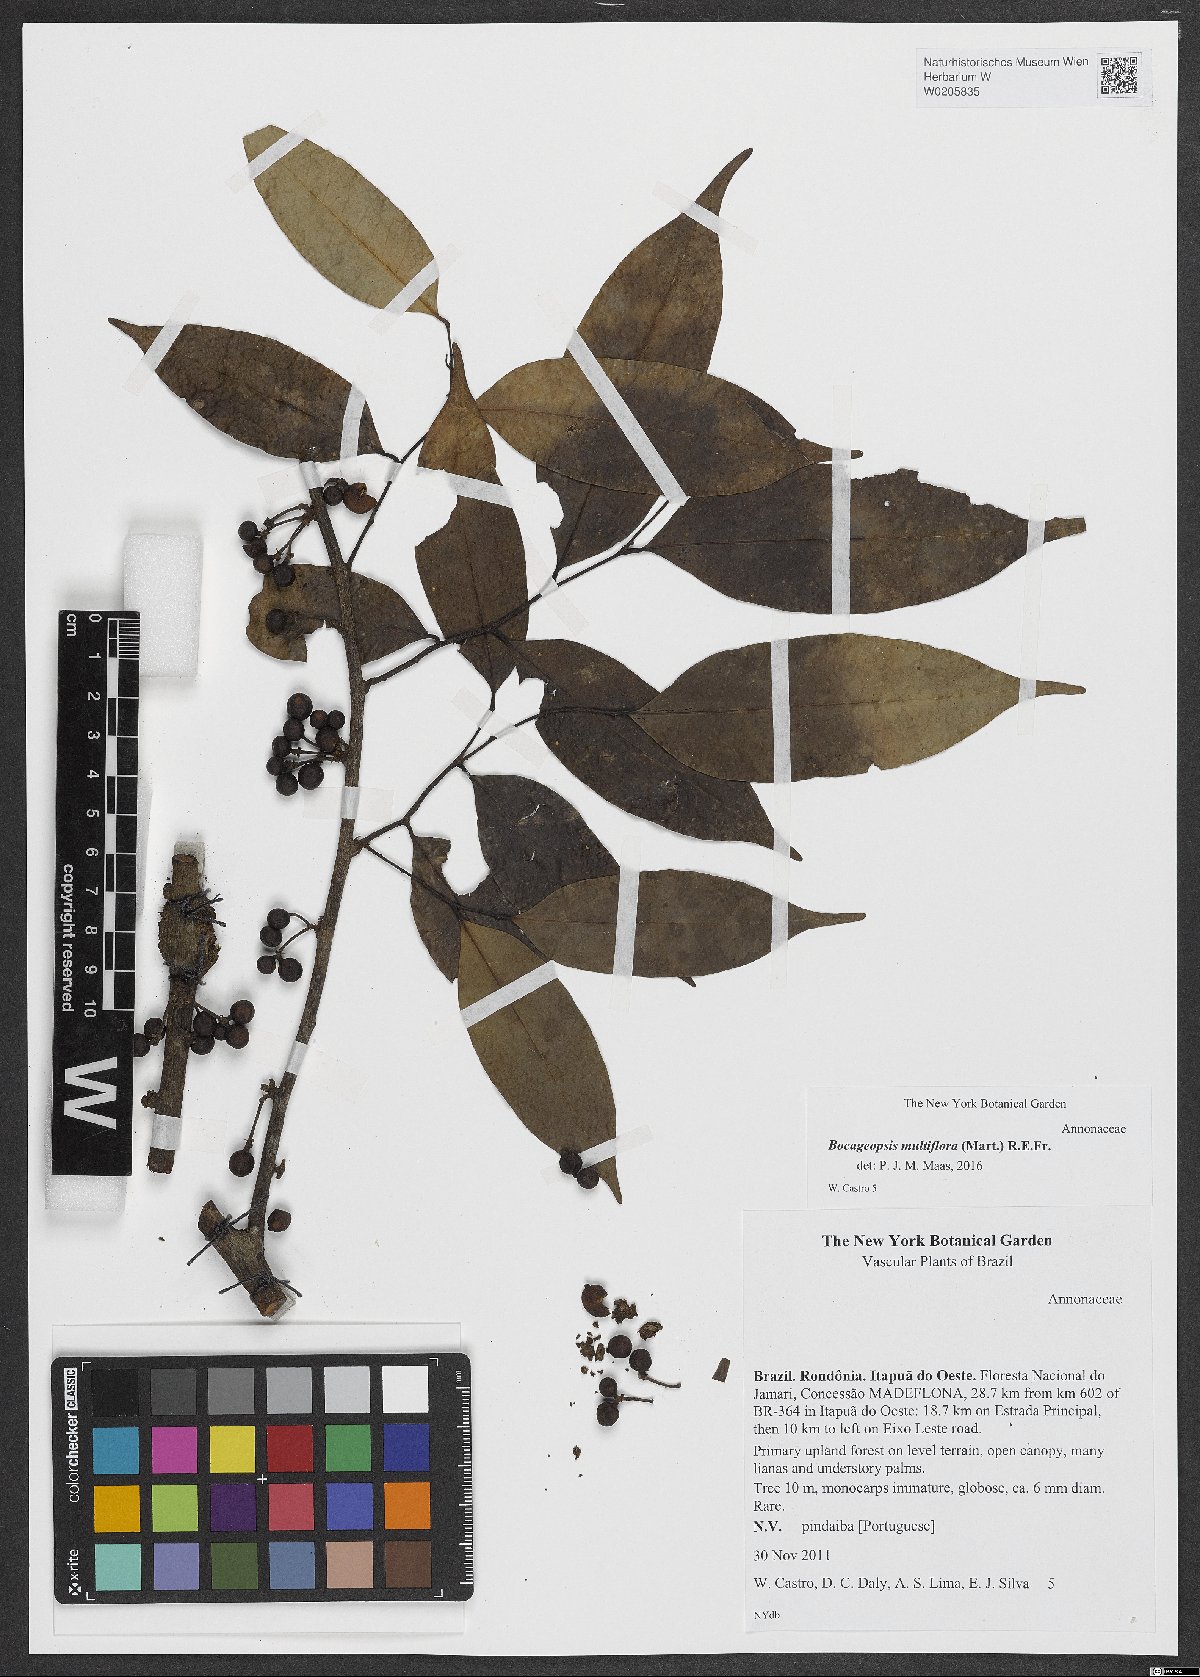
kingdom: Plantae
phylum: Tracheophyta
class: Magnoliopsida
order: Magnoliales
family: Annonaceae
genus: Bocageopsis
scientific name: Bocageopsis multiflora
